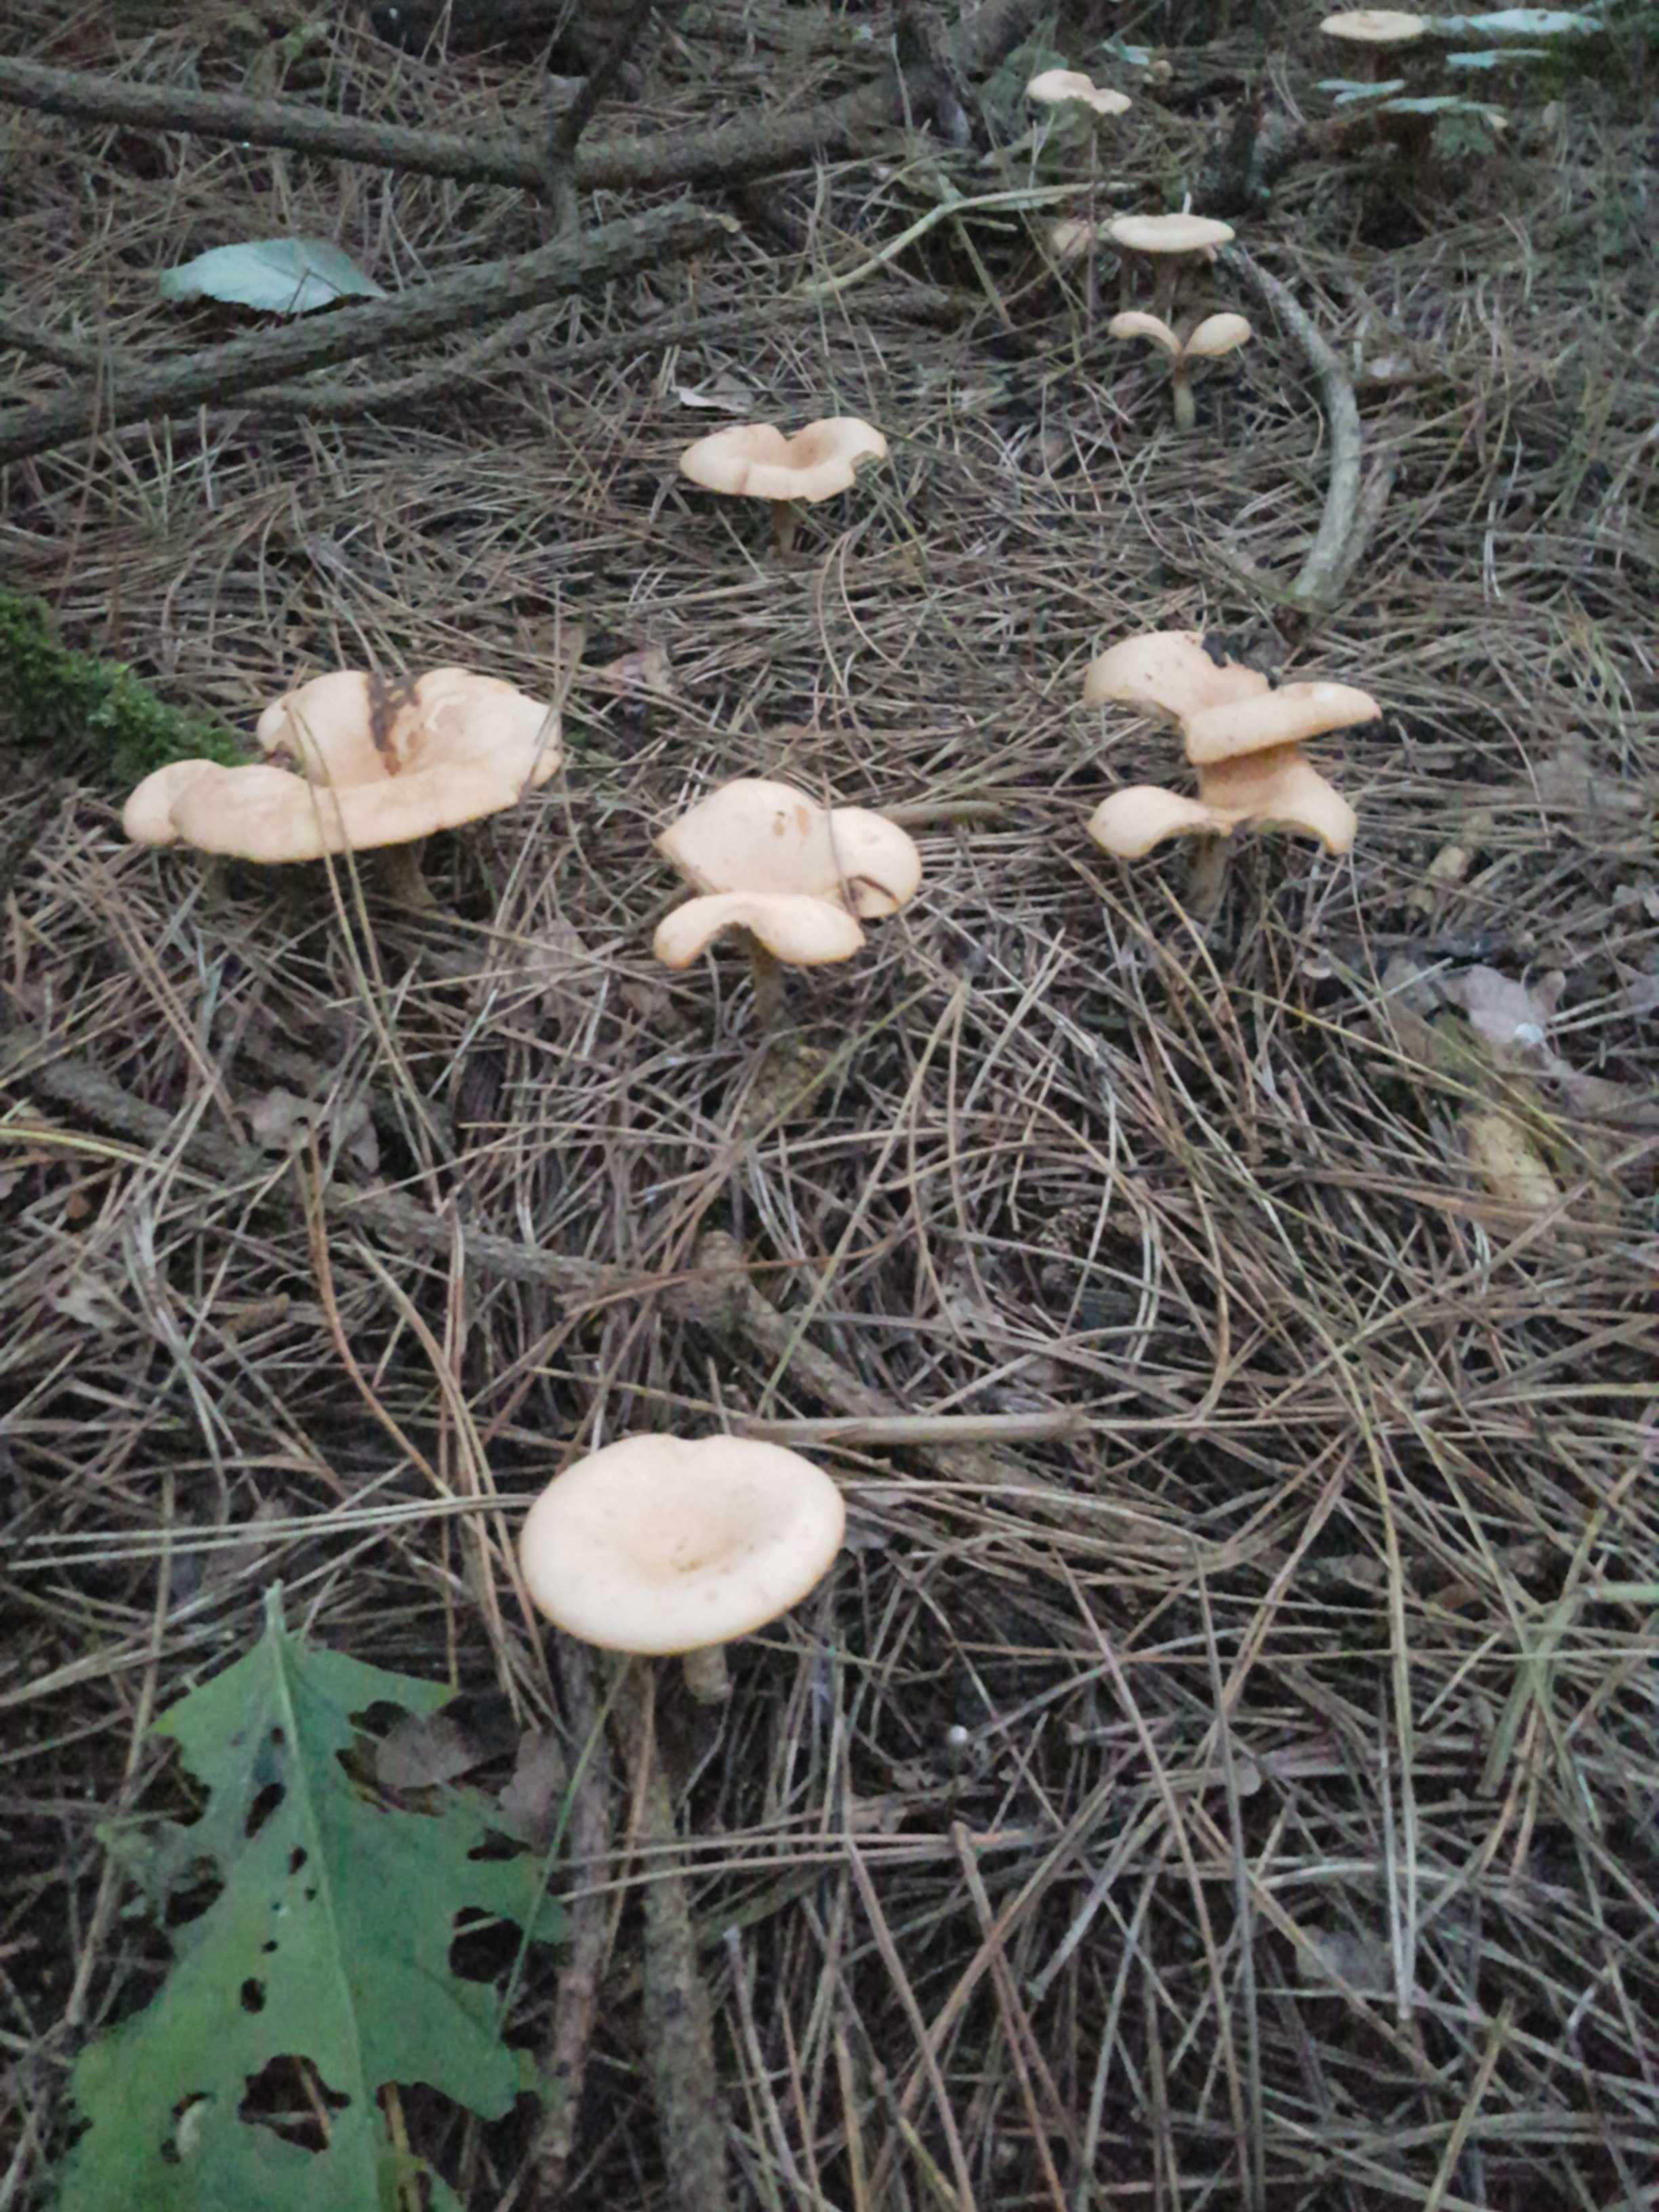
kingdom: Fungi
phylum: Basidiomycota
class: Agaricomycetes
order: Agaricales
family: Tricholomataceae
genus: Paralepista
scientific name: Paralepista
